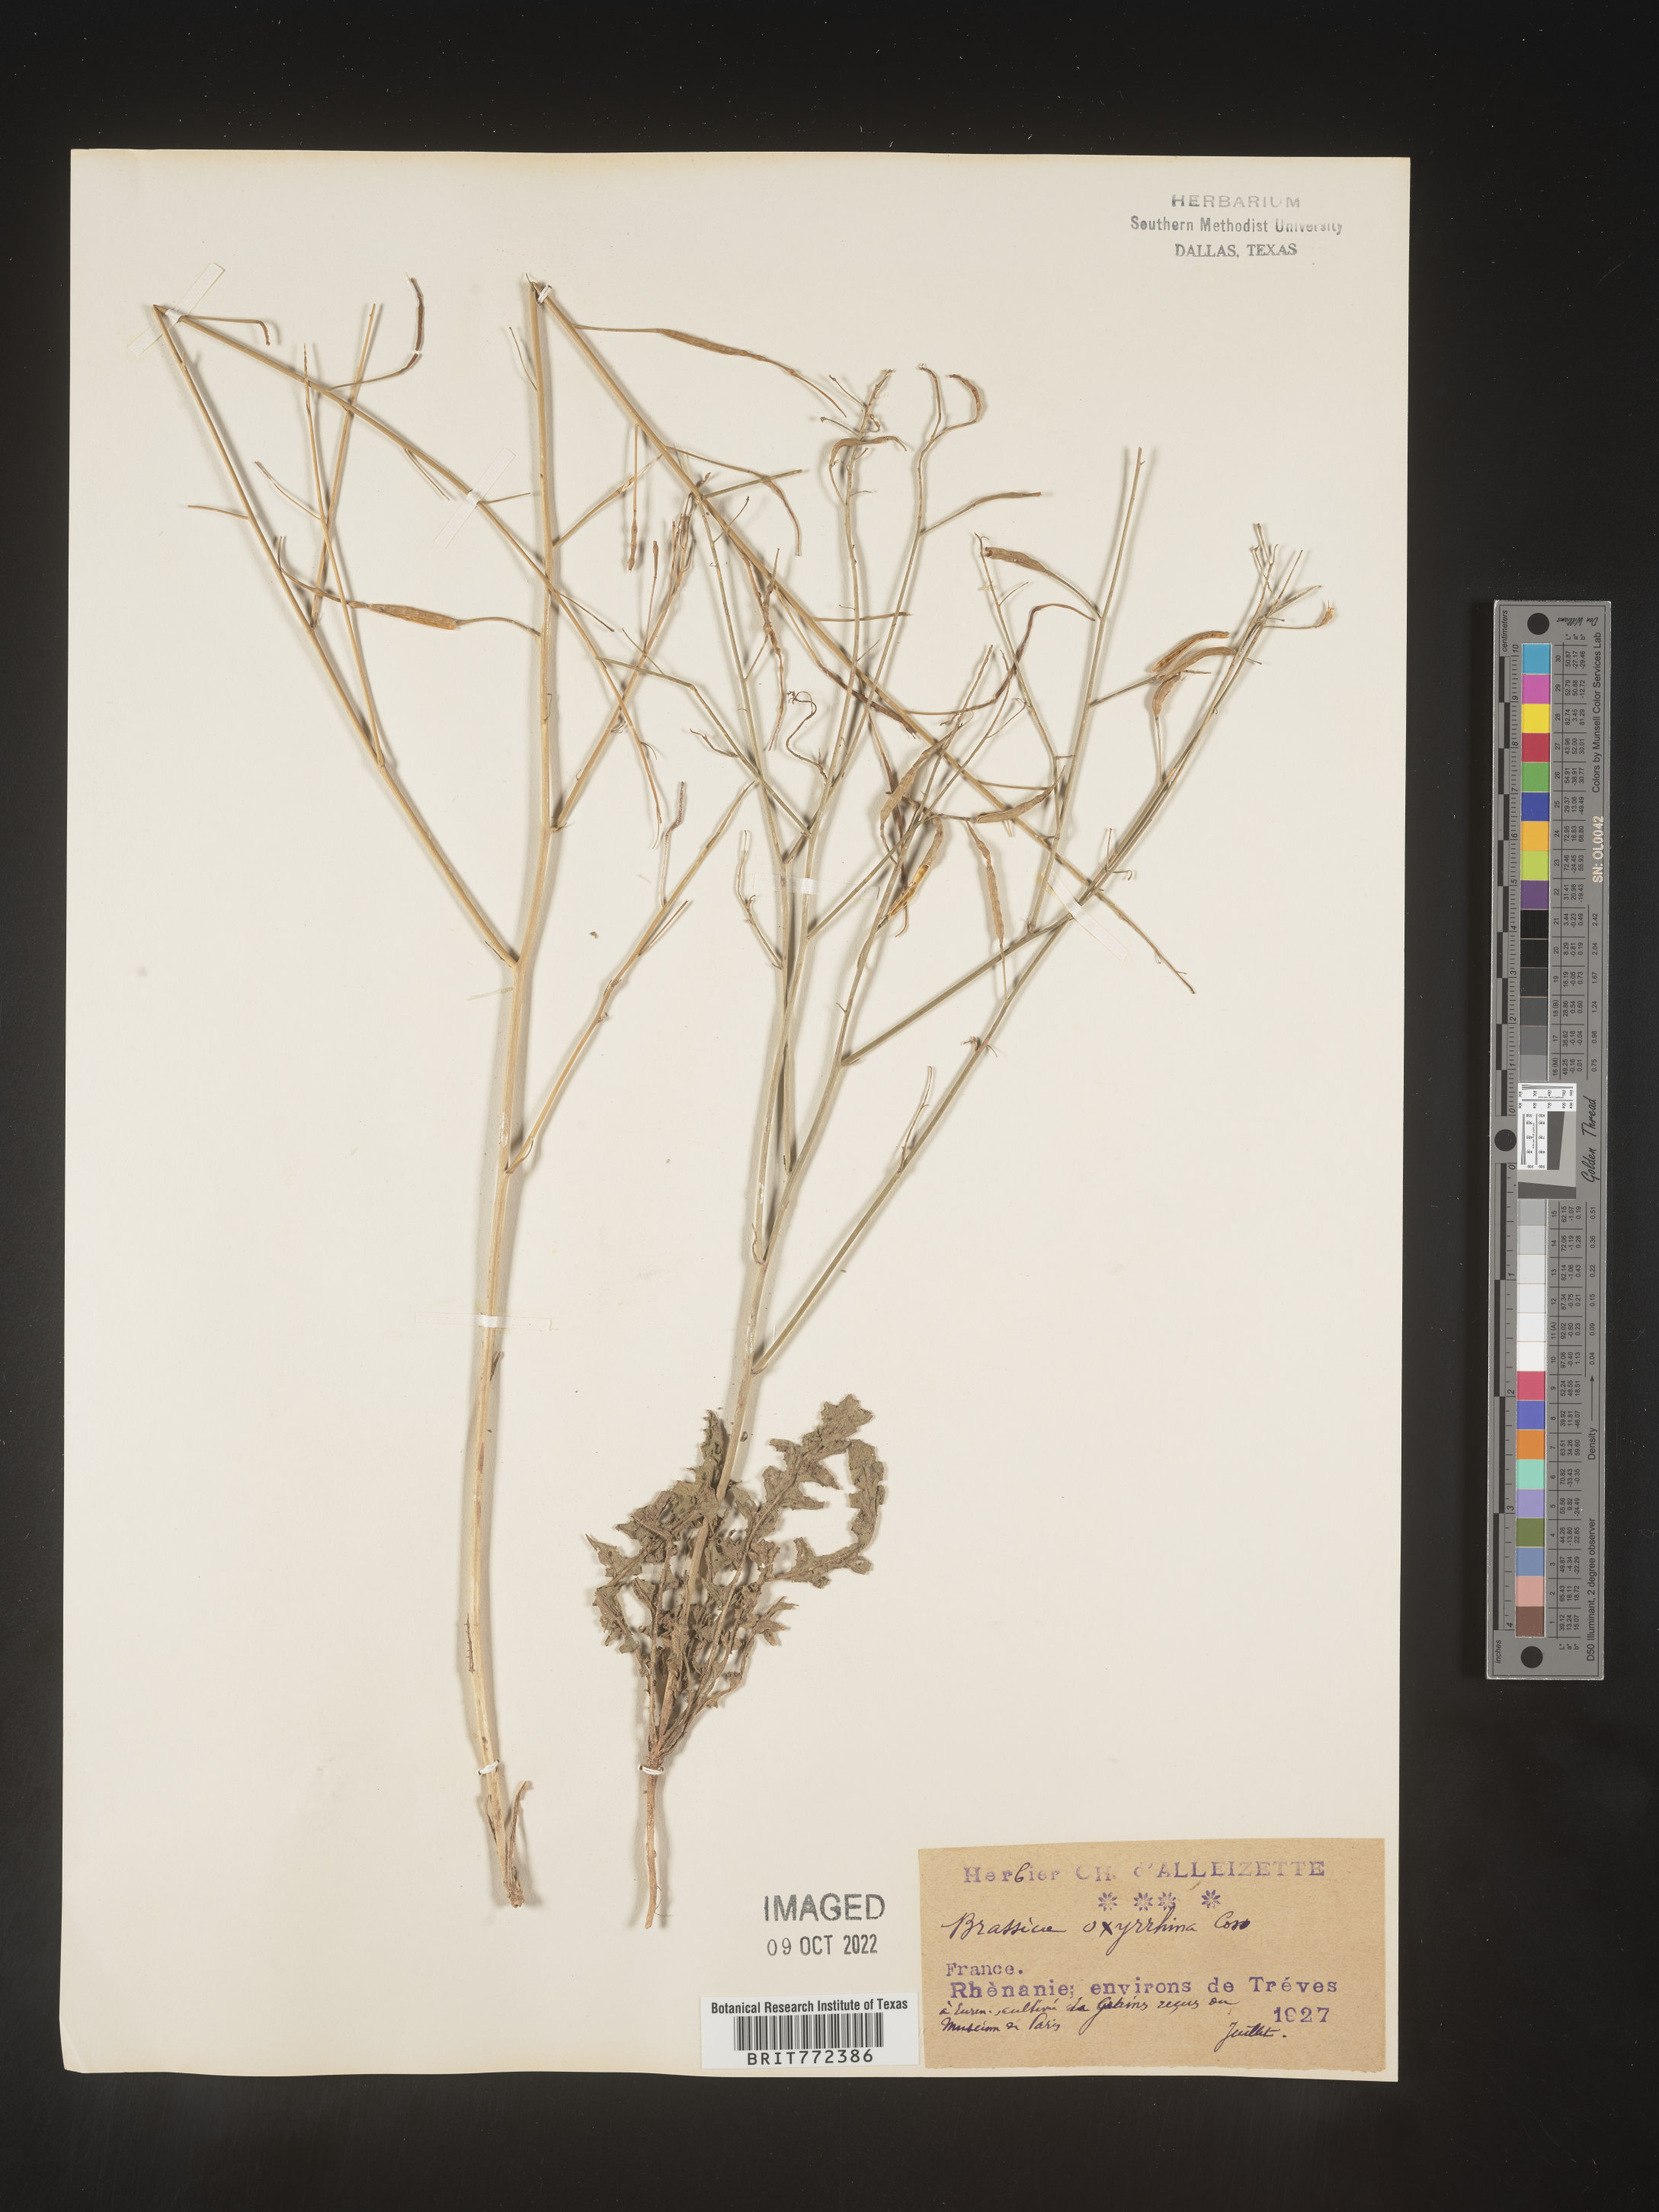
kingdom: Plantae
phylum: Tracheophyta
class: Magnoliopsida
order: Brassicales
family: Brassicaceae
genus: Brassica
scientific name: Brassica
